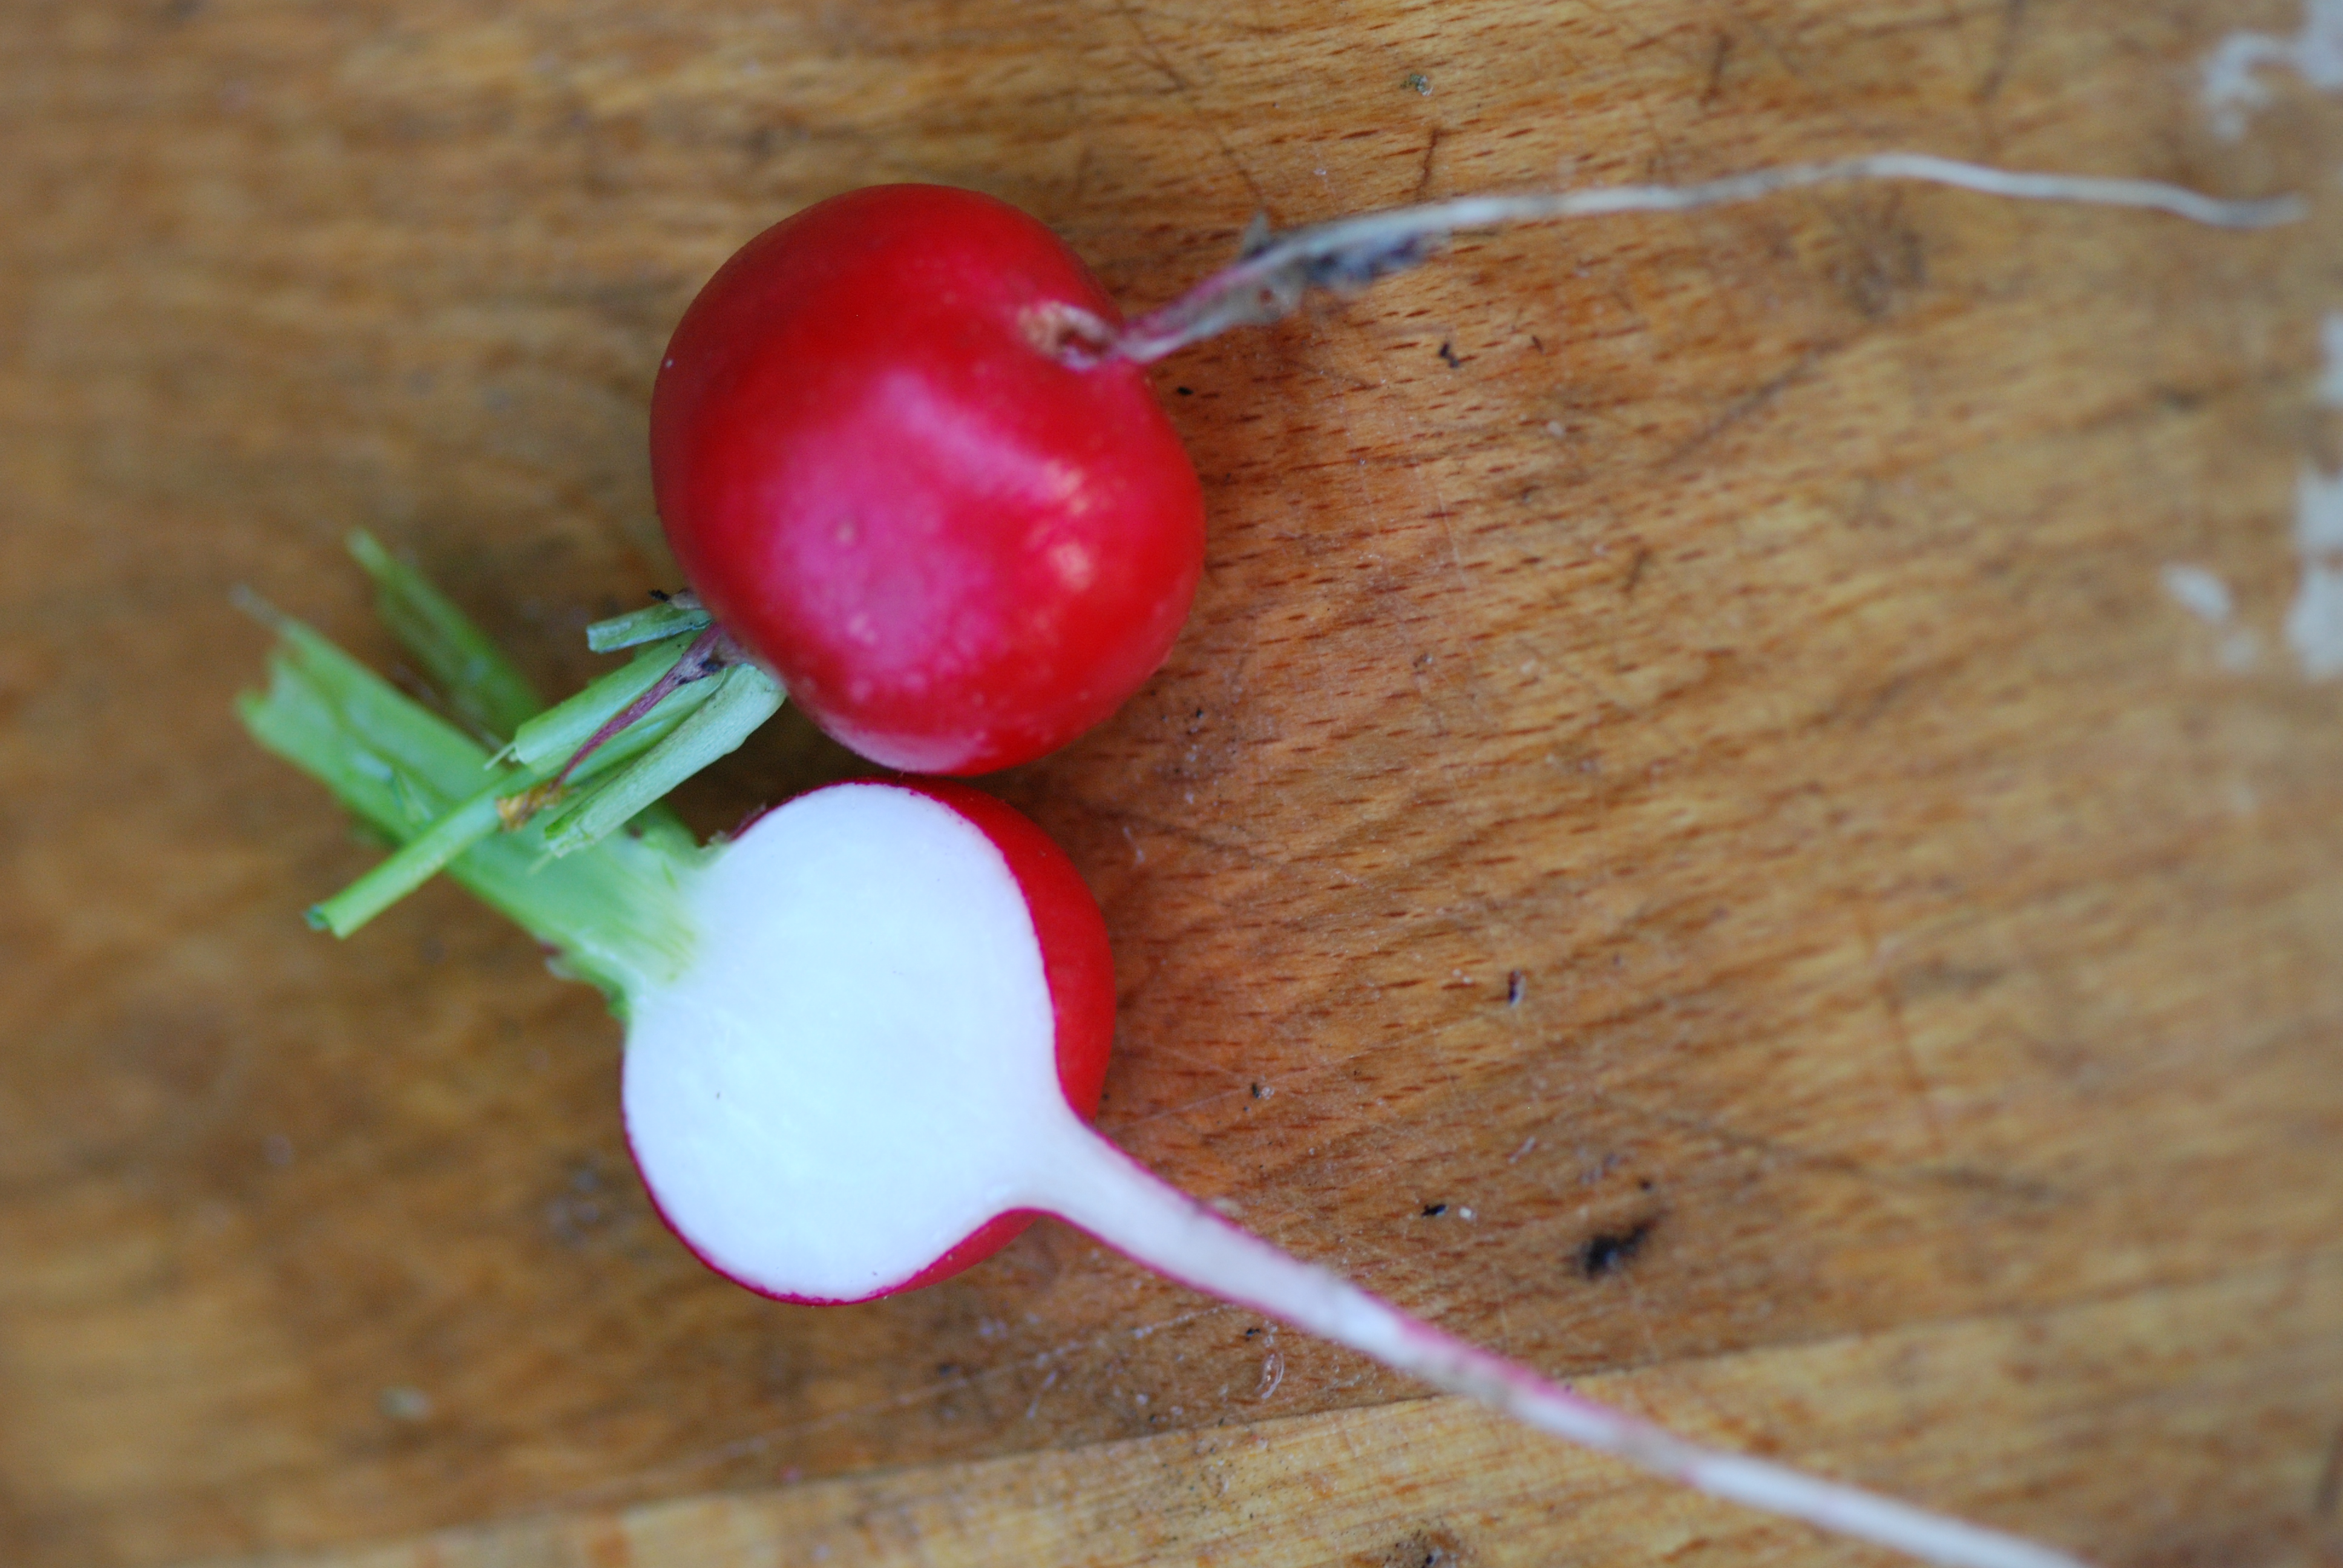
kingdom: Plantae
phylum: Tracheophyta
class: Magnoliopsida
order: Brassicales
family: Brassicaceae
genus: Raphanus
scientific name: Raphanus sativus
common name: Cultivated radish
